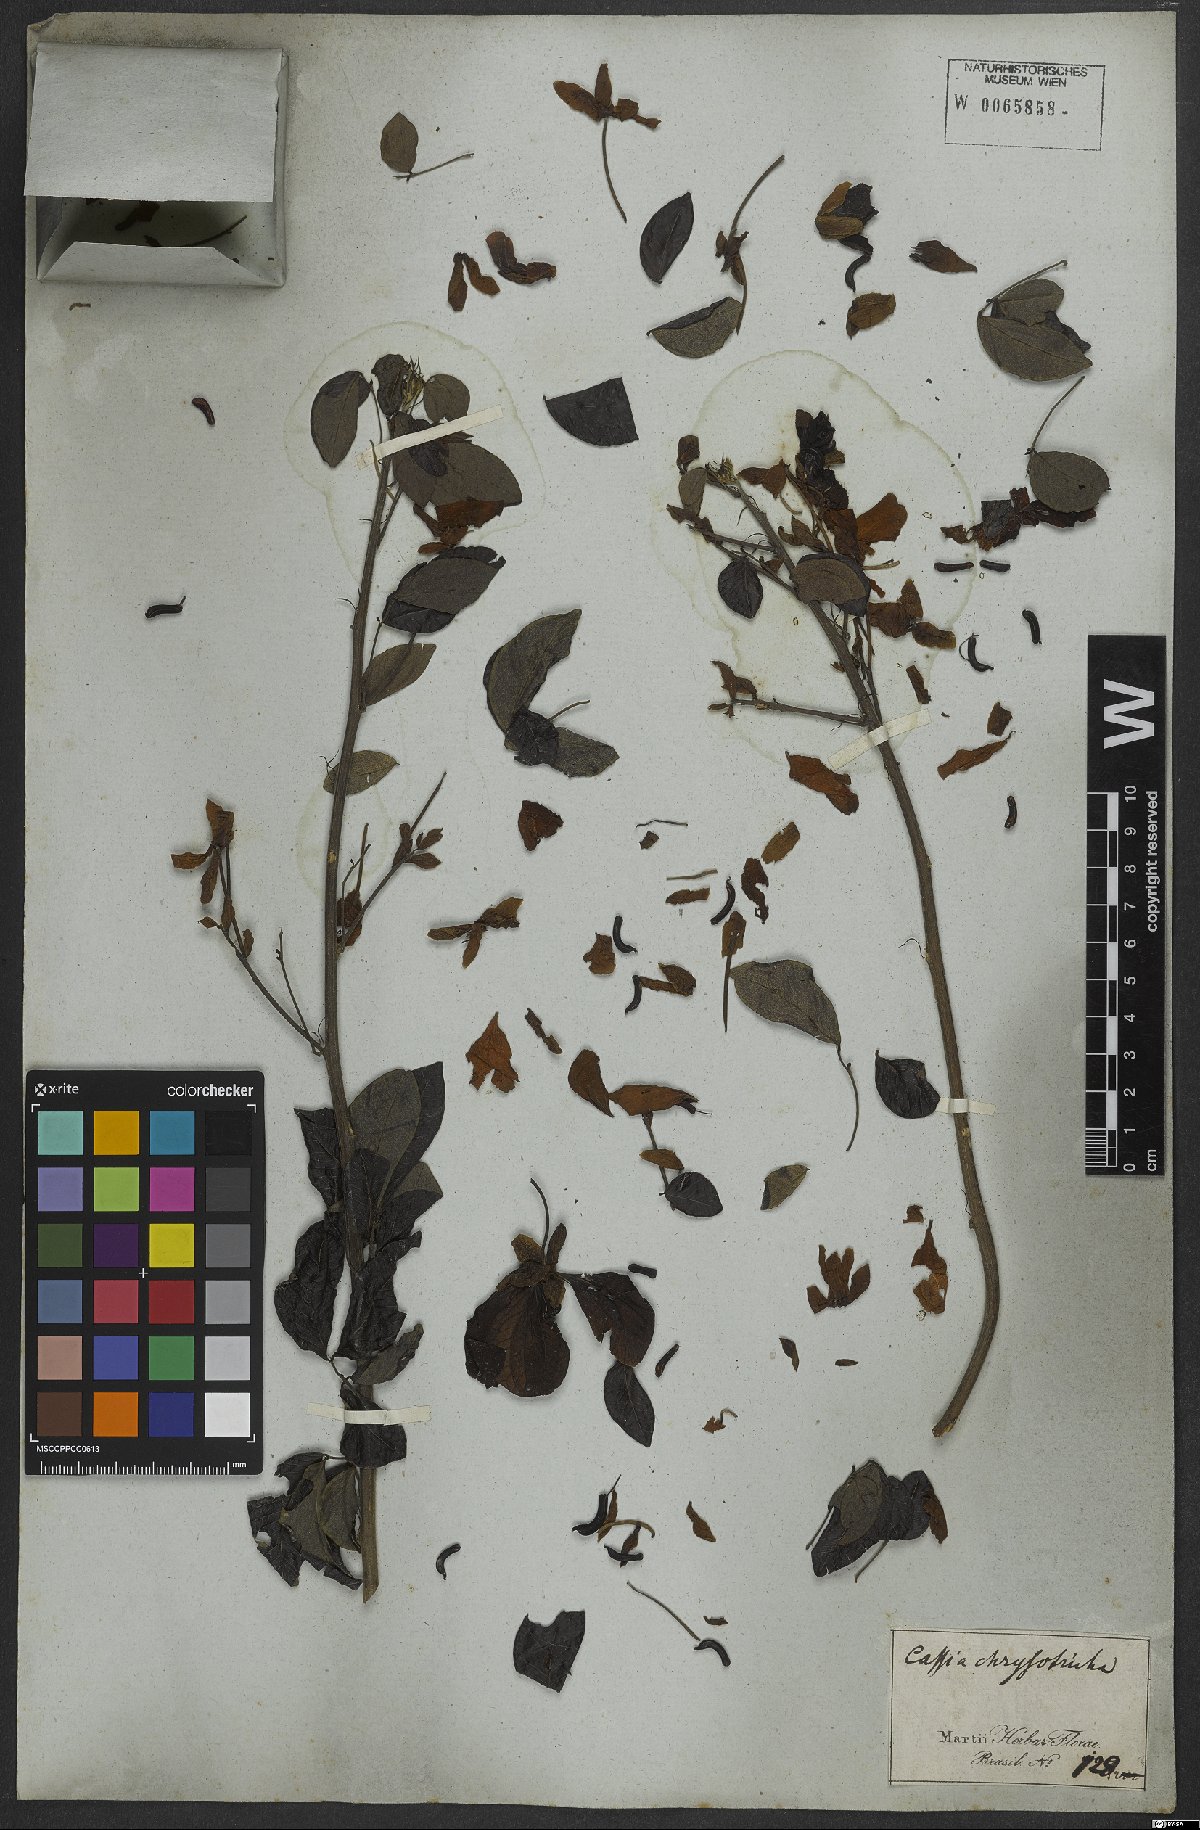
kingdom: Plantae
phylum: Tracheophyta
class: Magnoliopsida
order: Fabales
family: Fabaceae
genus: Senna
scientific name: Senna angulata
